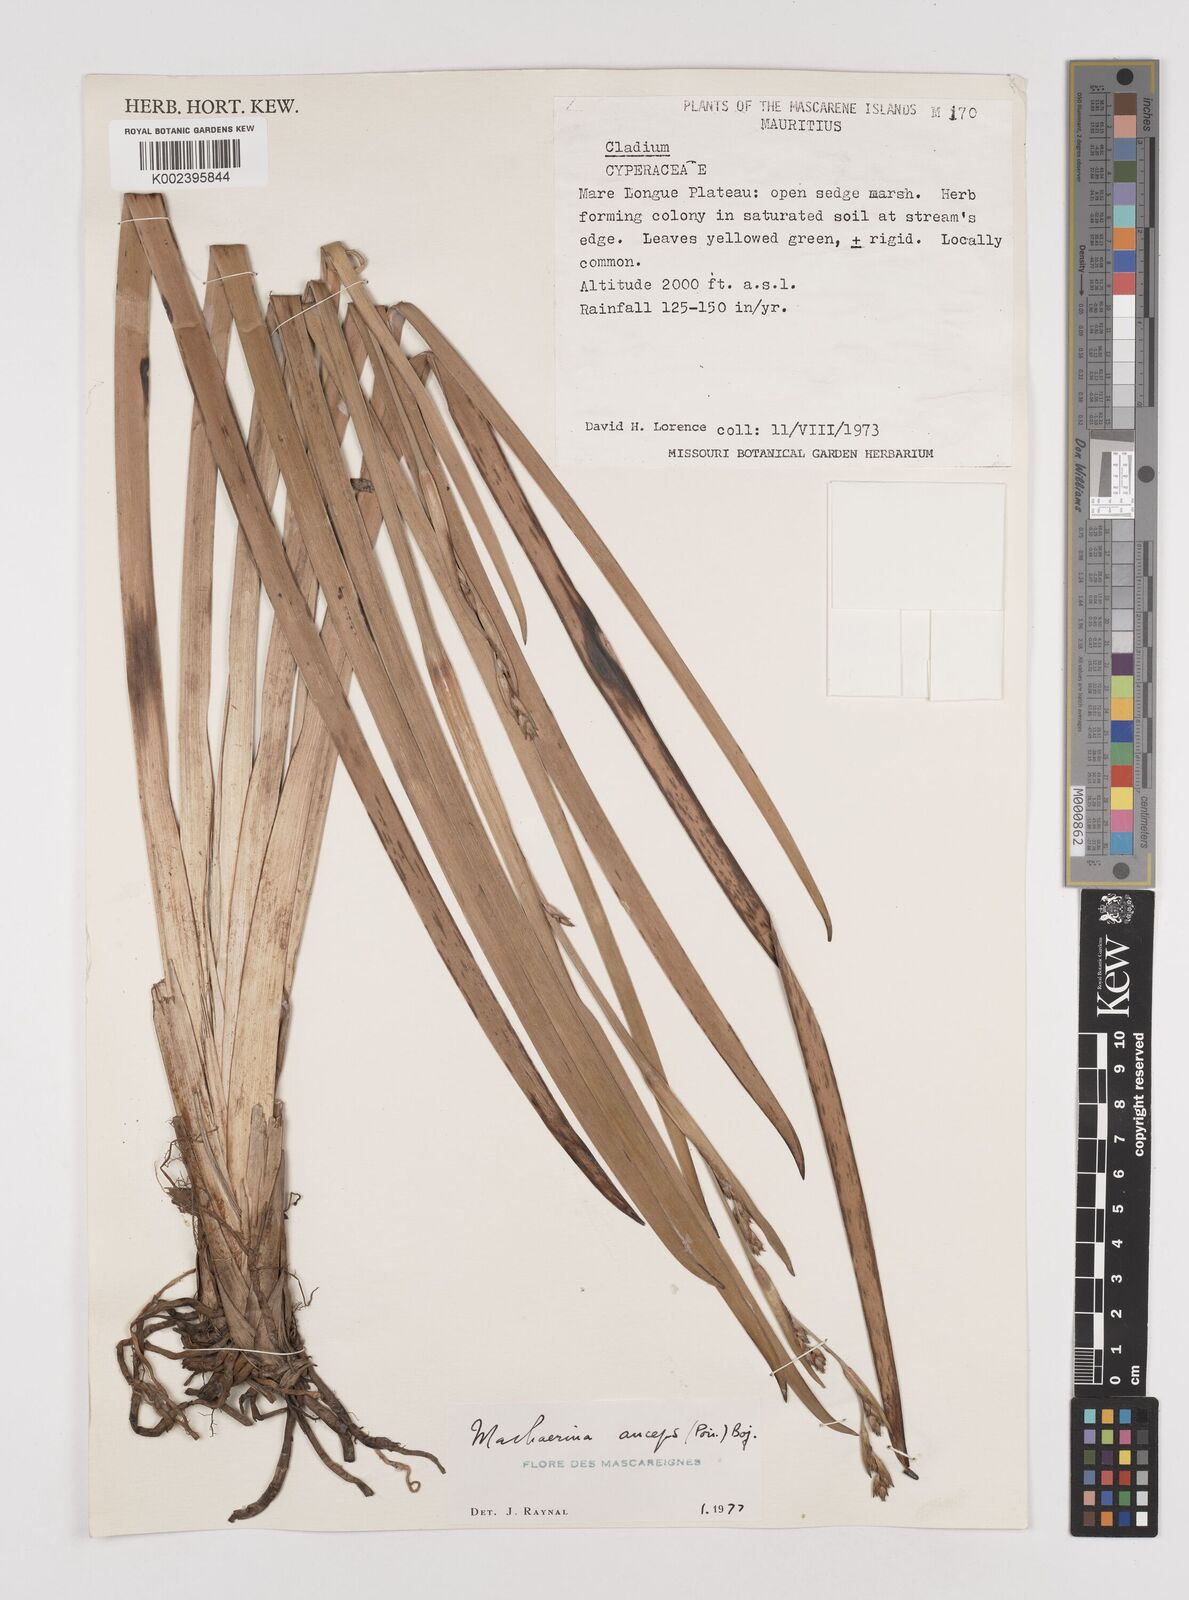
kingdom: Plantae
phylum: Tracheophyta
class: Liliopsida
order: Poales
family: Cyperaceae
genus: Machaerina
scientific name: Machaerina anceps
